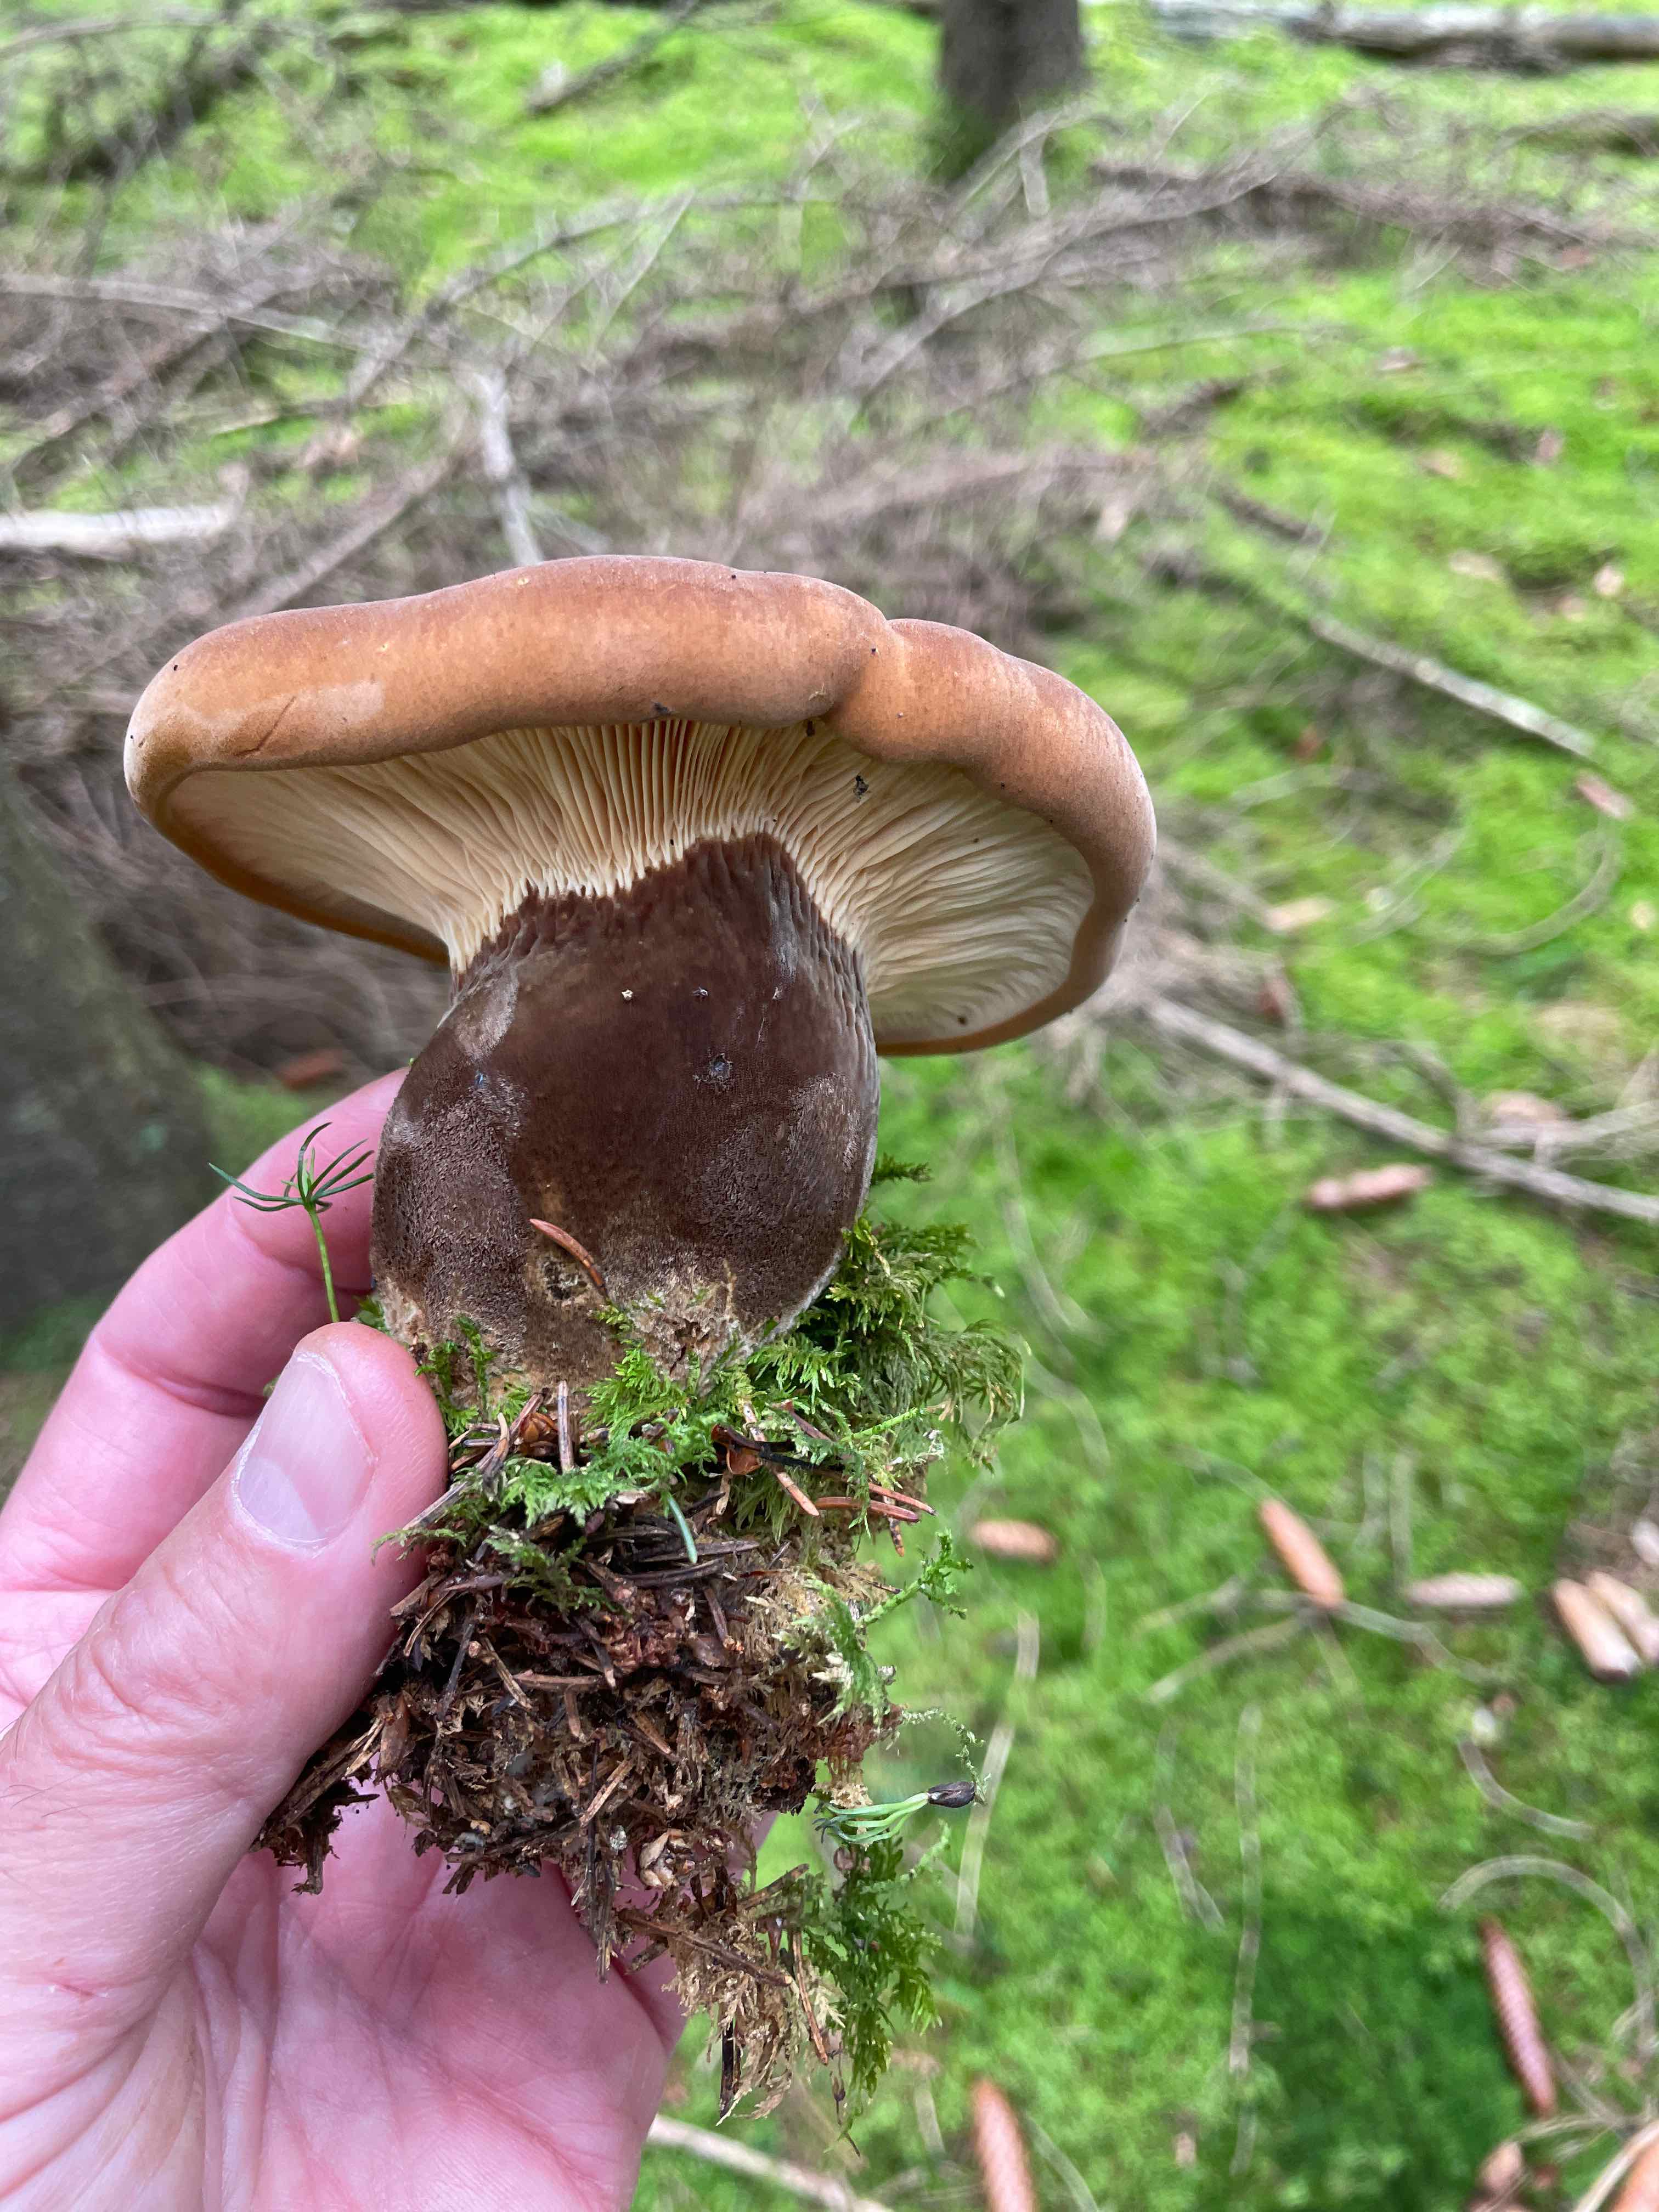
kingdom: Fungi
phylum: Basidiomycota
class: Agaricomycetes
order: Boletales
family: Tapinellaceae
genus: Tapinella
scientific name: Tapinella atrotomentosa
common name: sortfiltet viftesvamp
